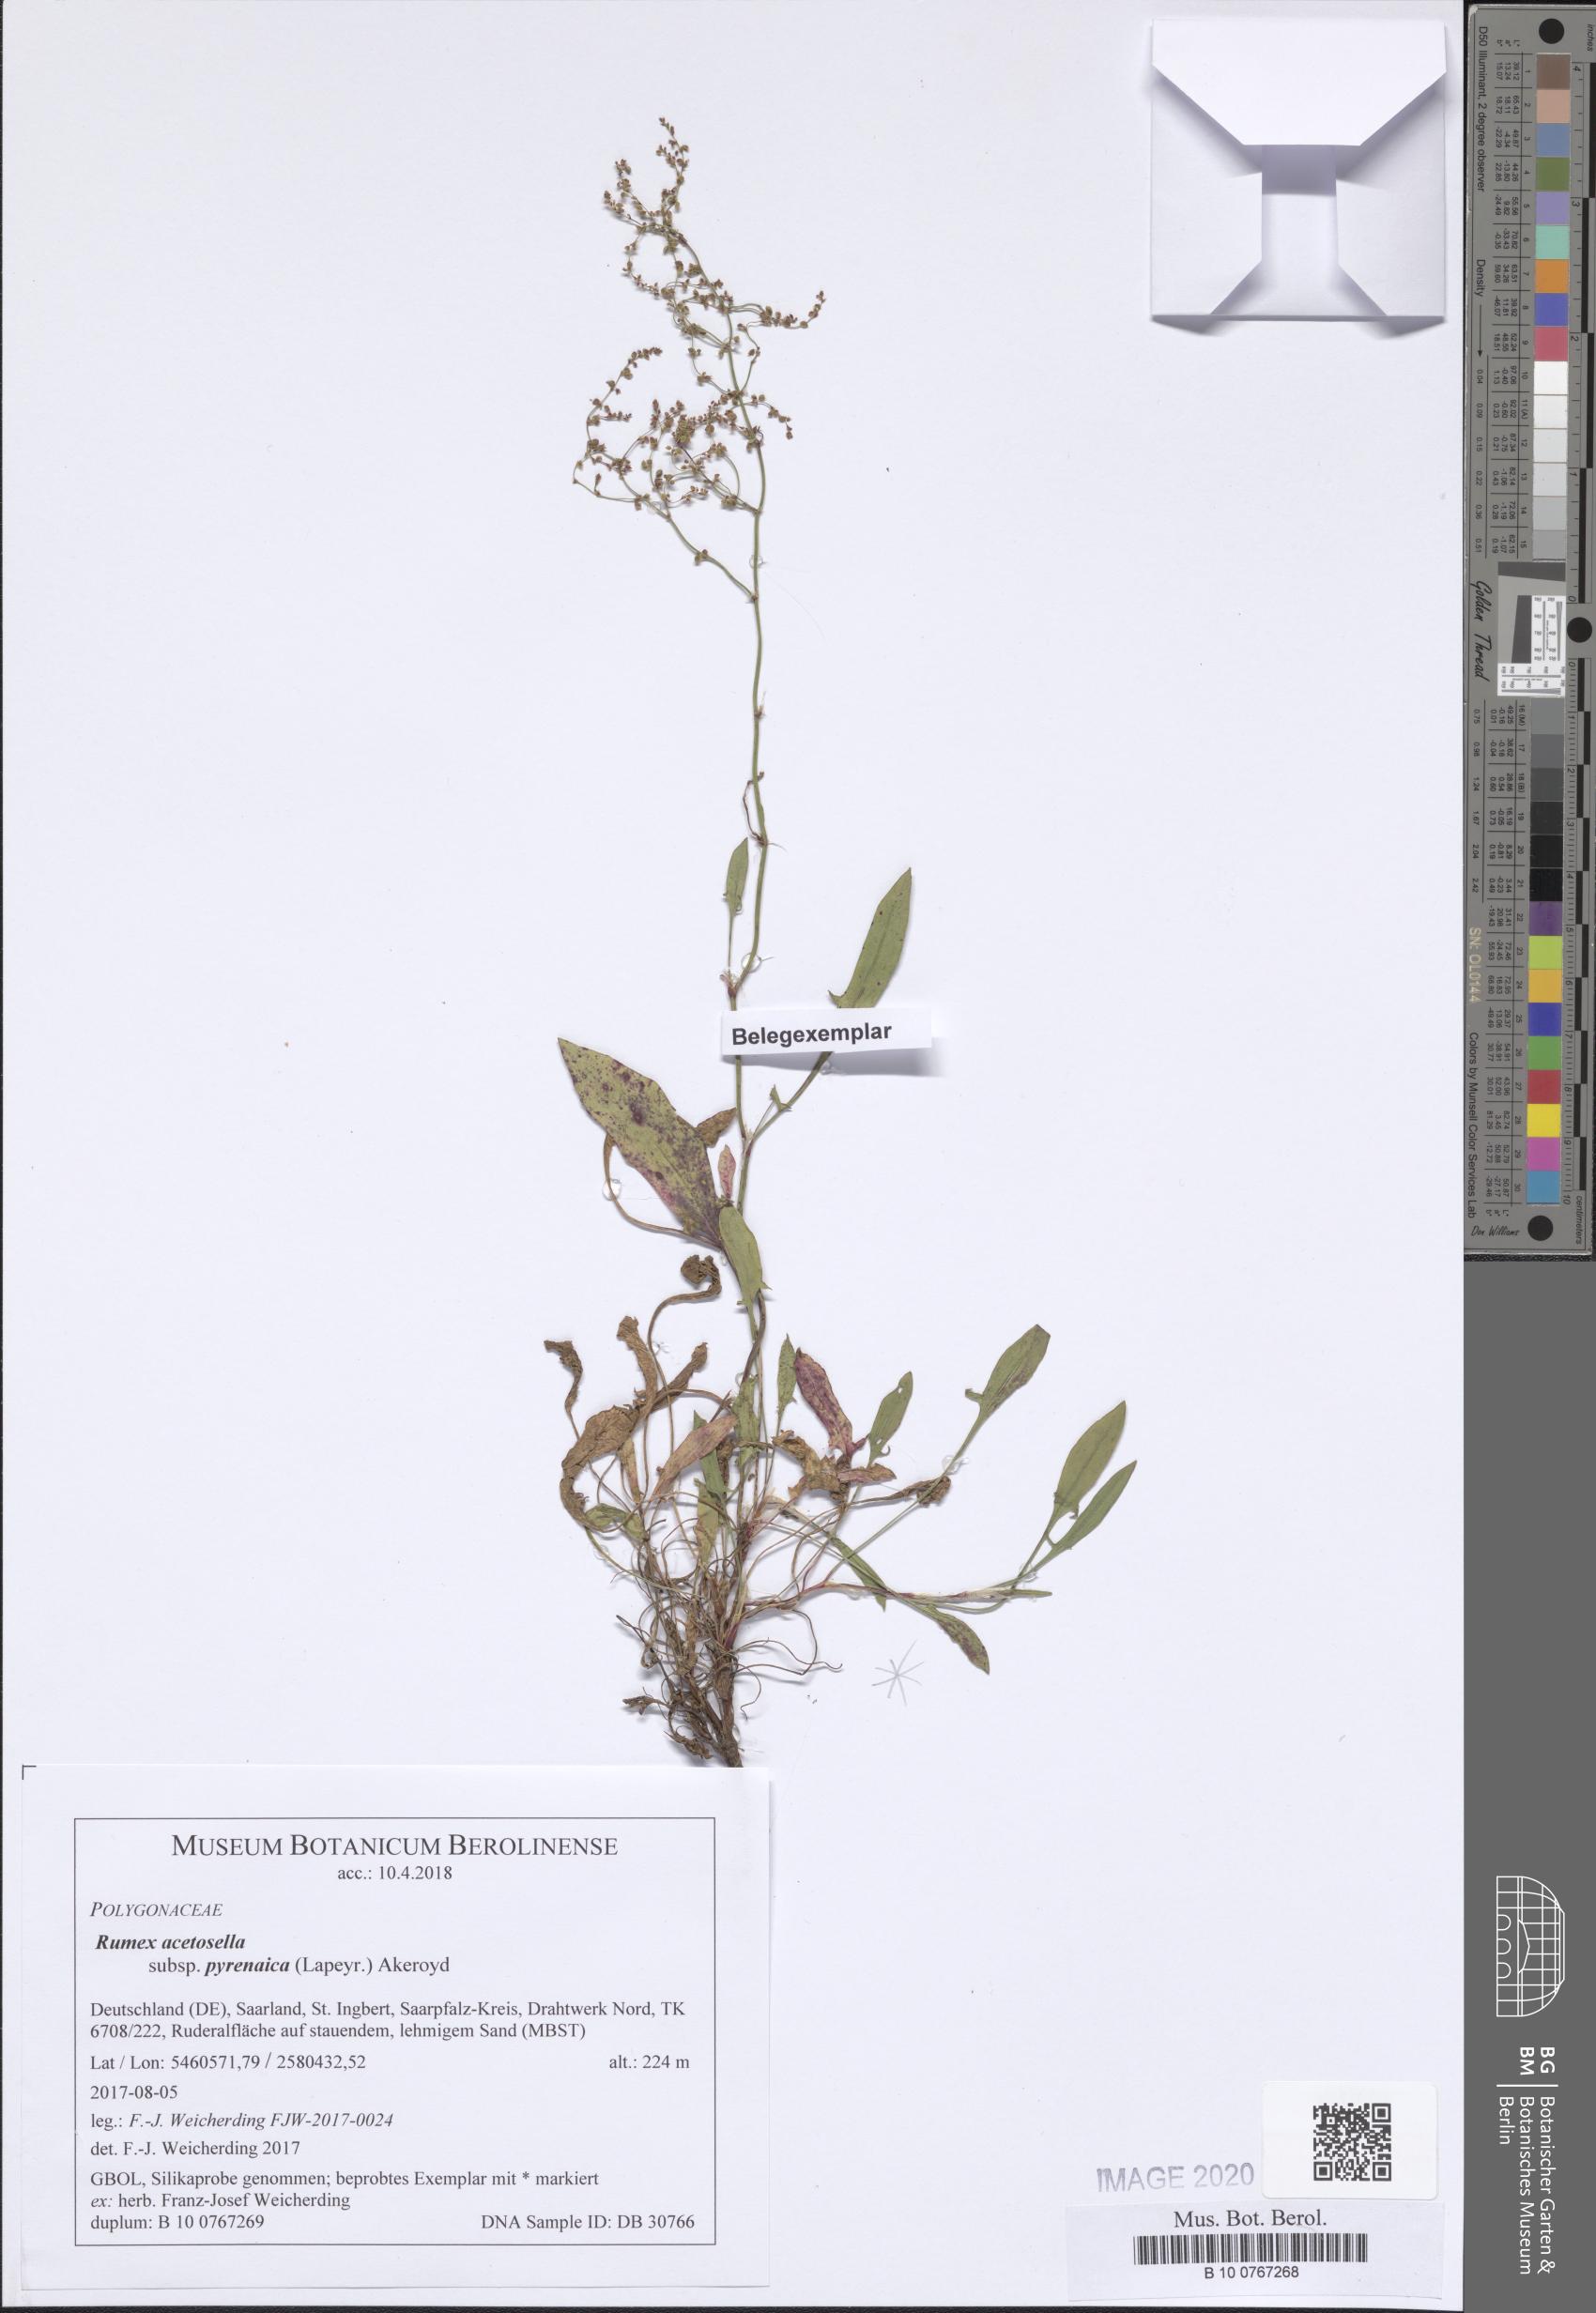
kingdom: Plantae
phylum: Tracheophyta
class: Magnoliopsida
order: Caryophyllales
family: Polygonaceae
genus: Rumex
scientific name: Rumex acetosella
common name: Common sheep sorrel
